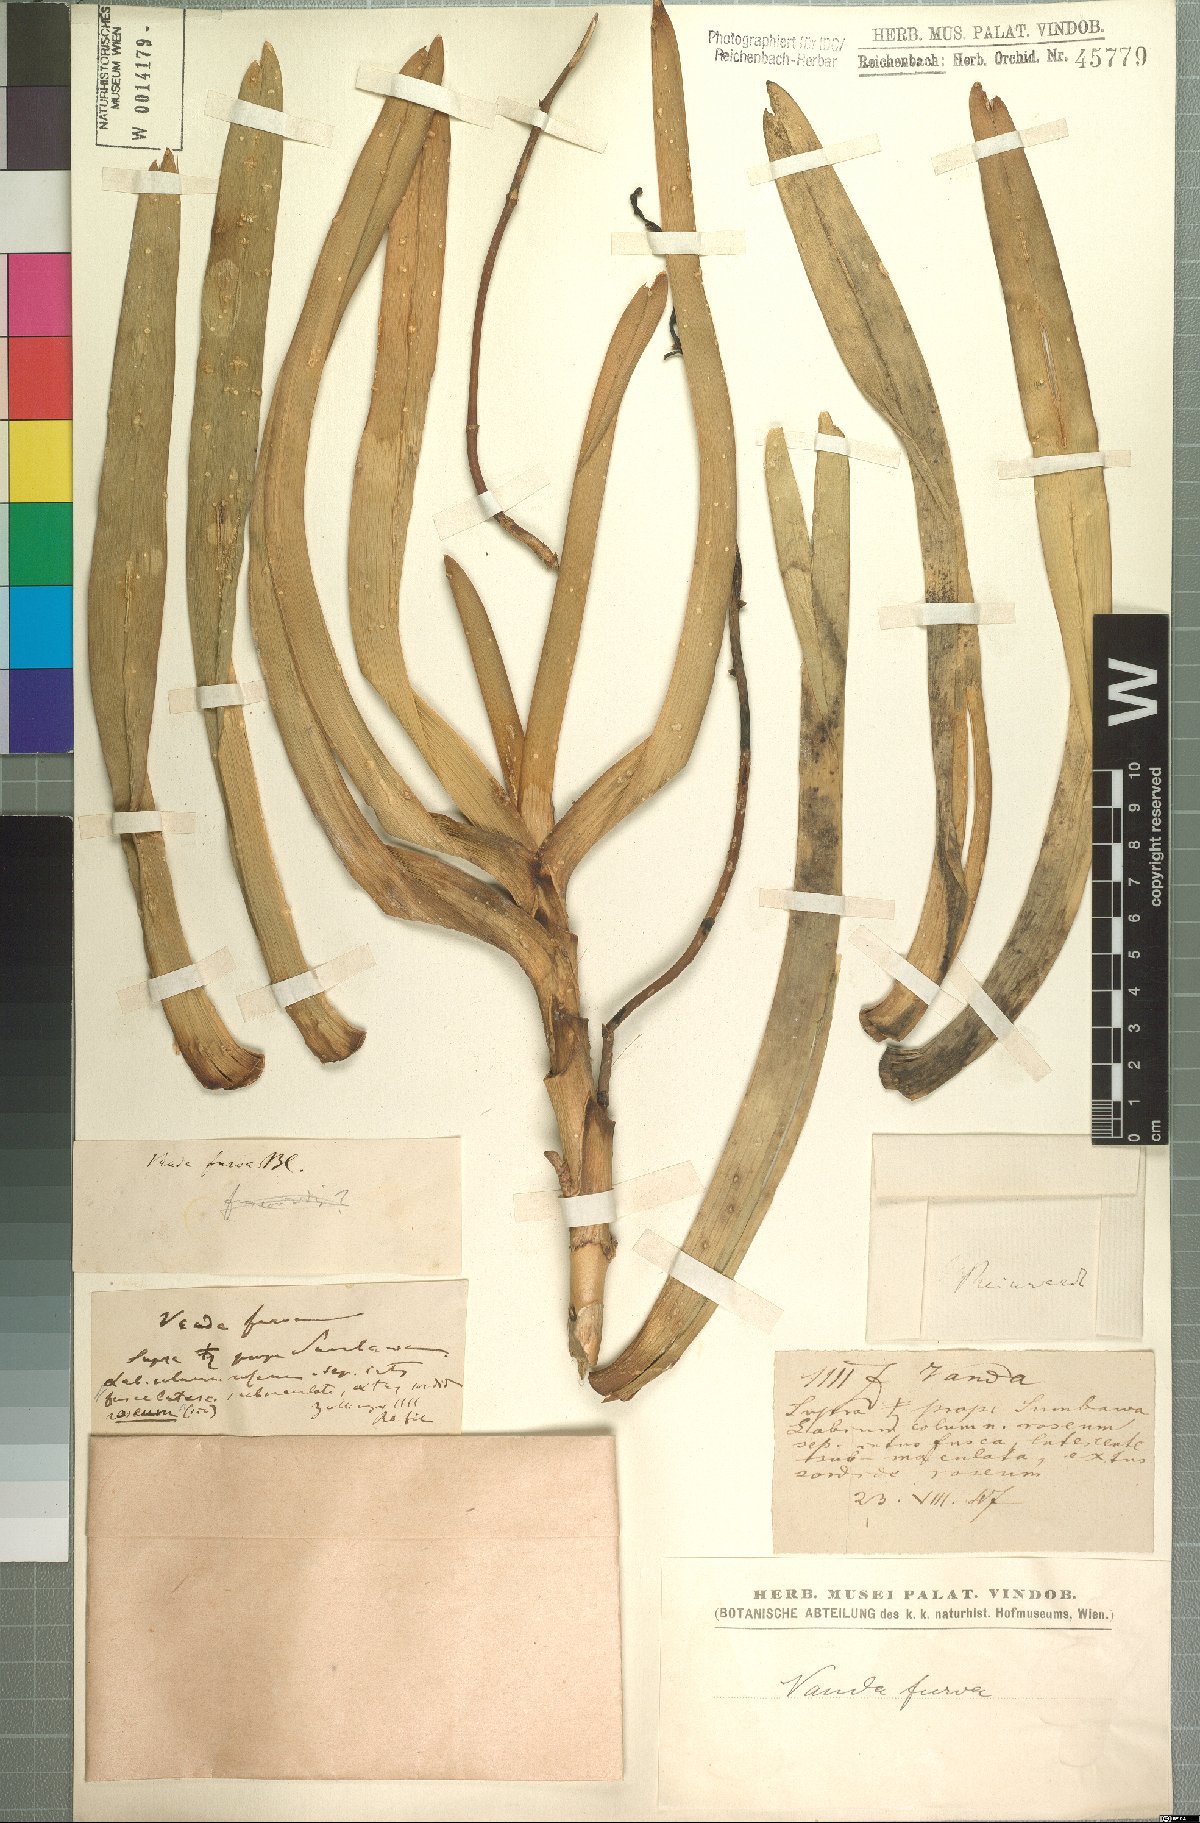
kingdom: Plantae
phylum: Tracheophyta
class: Liliopsida
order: Asparagales
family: Orchidaceae
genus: Vanda
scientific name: Vanda furva
